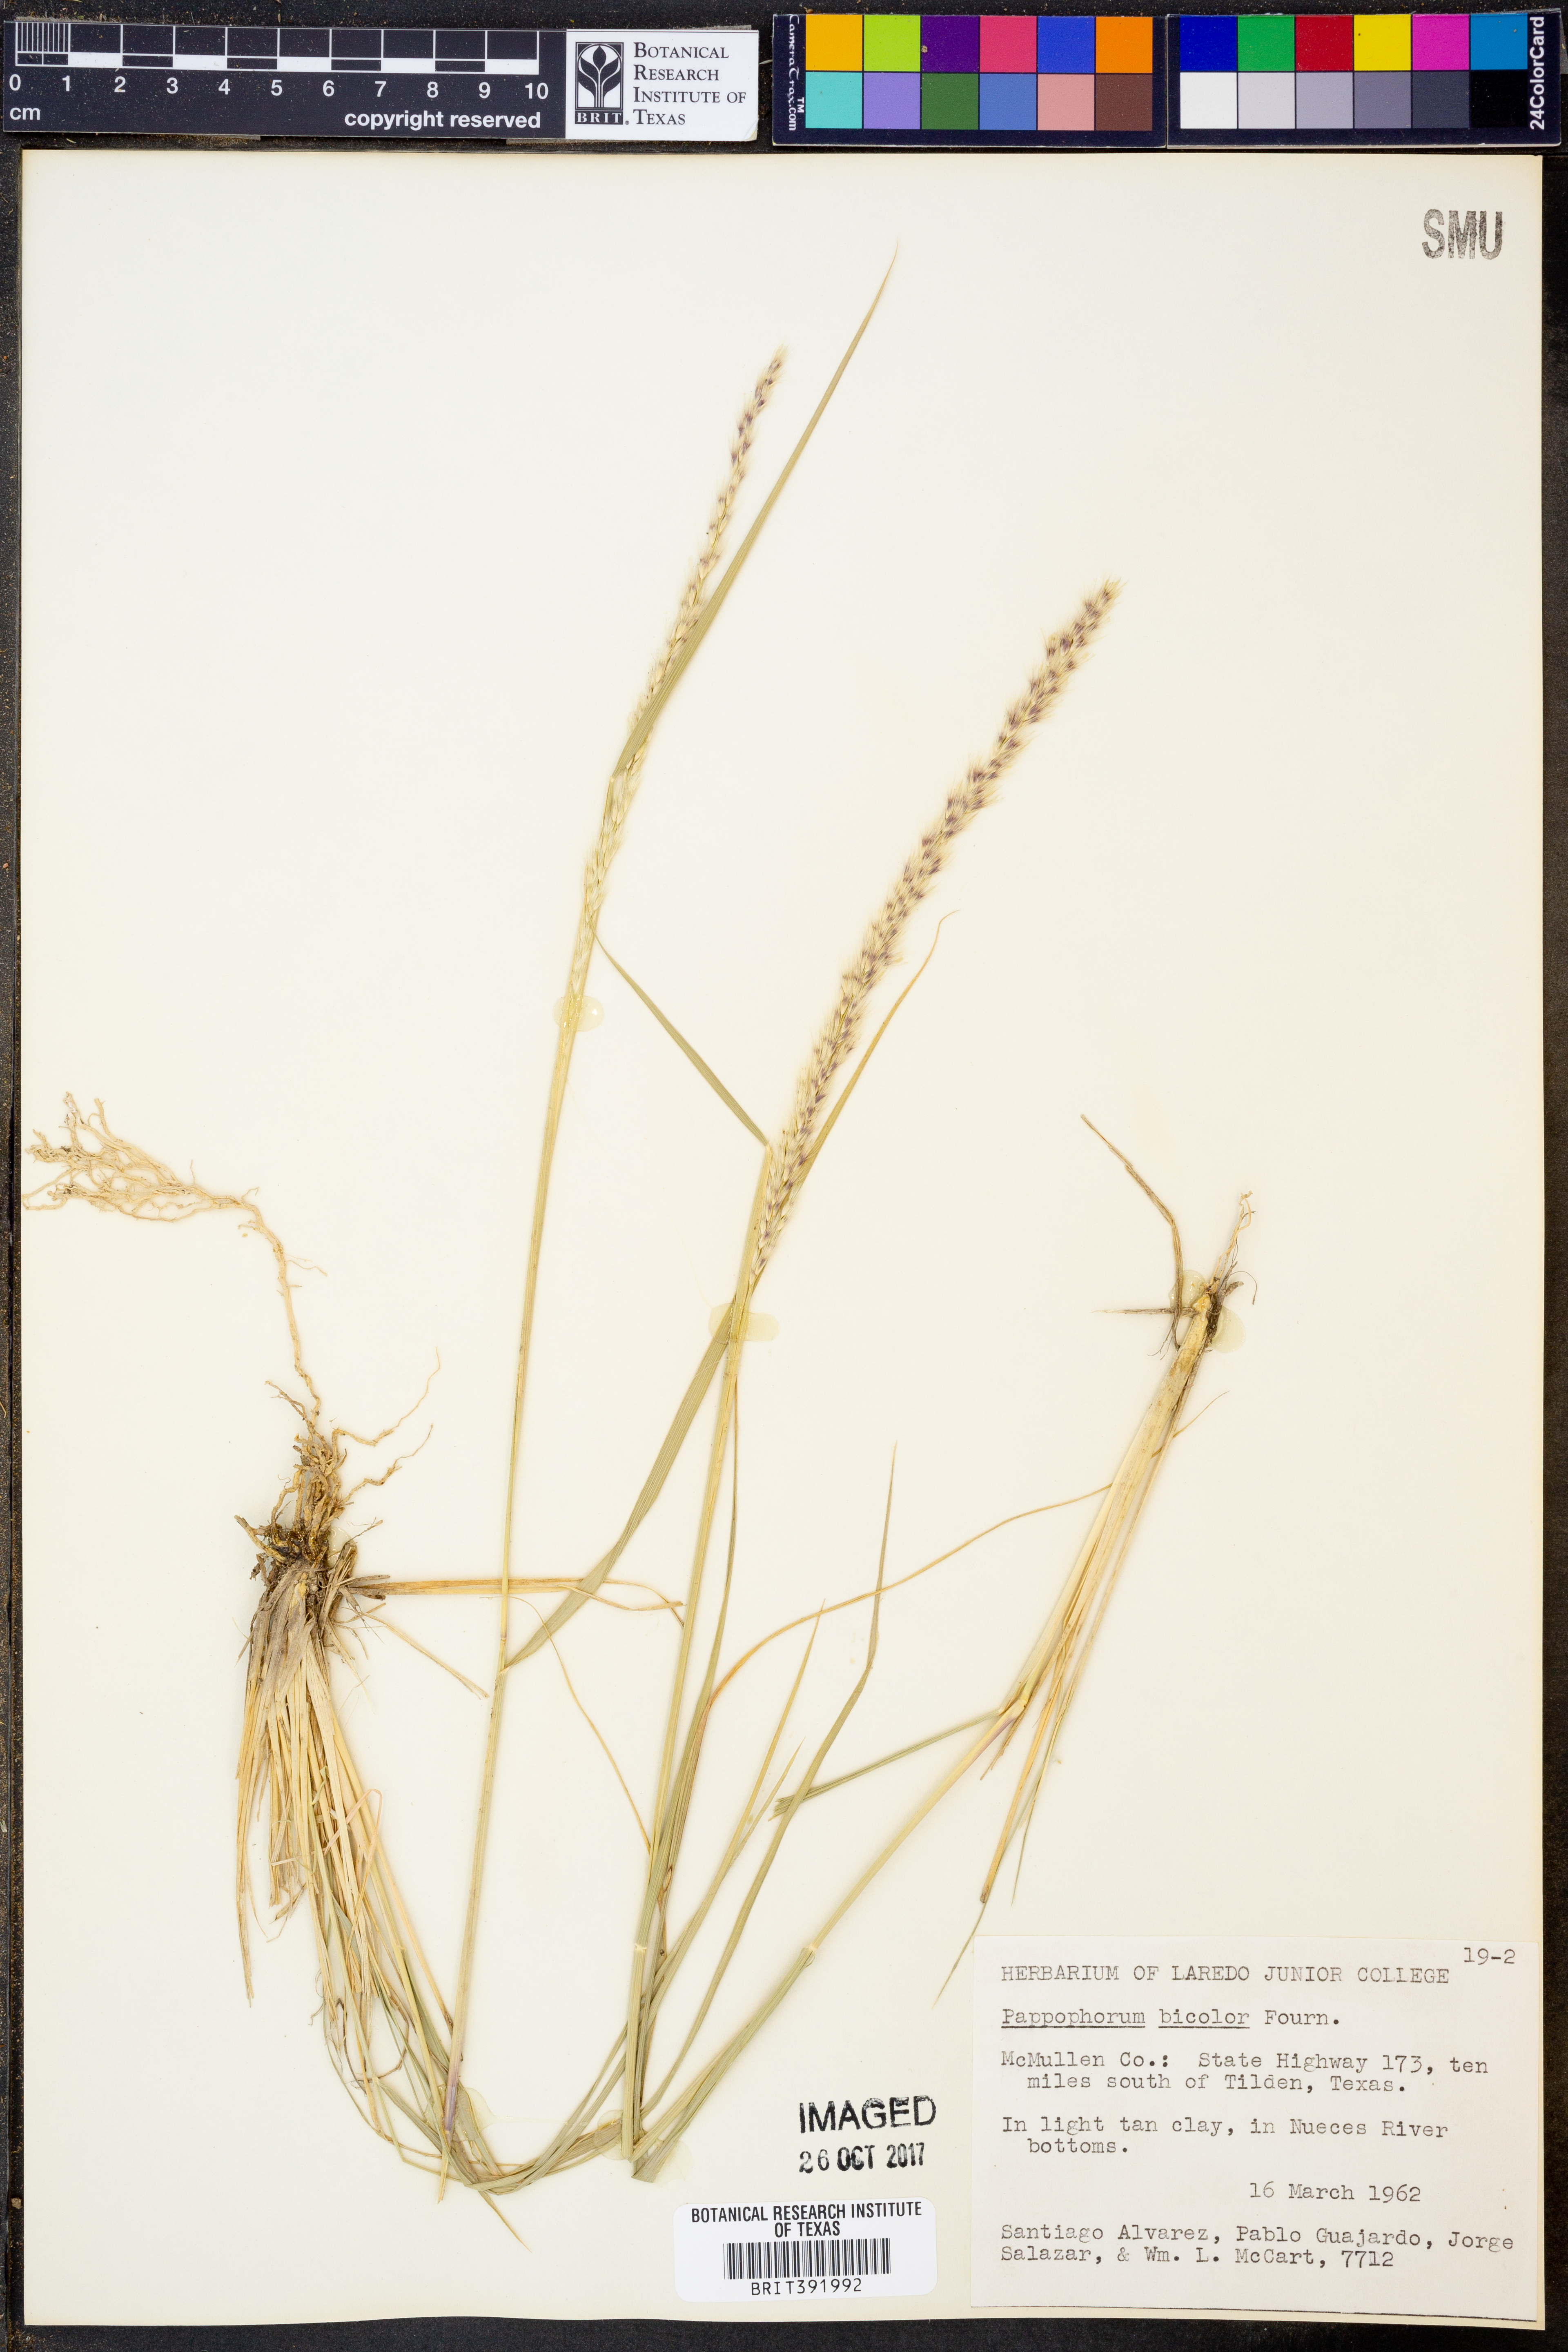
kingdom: Plantae
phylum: Tracheophyta
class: Liliopsida
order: Poales
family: Poaceae
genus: Pappophorum
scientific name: Pappophorum bicolor
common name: Pink pappus grass
